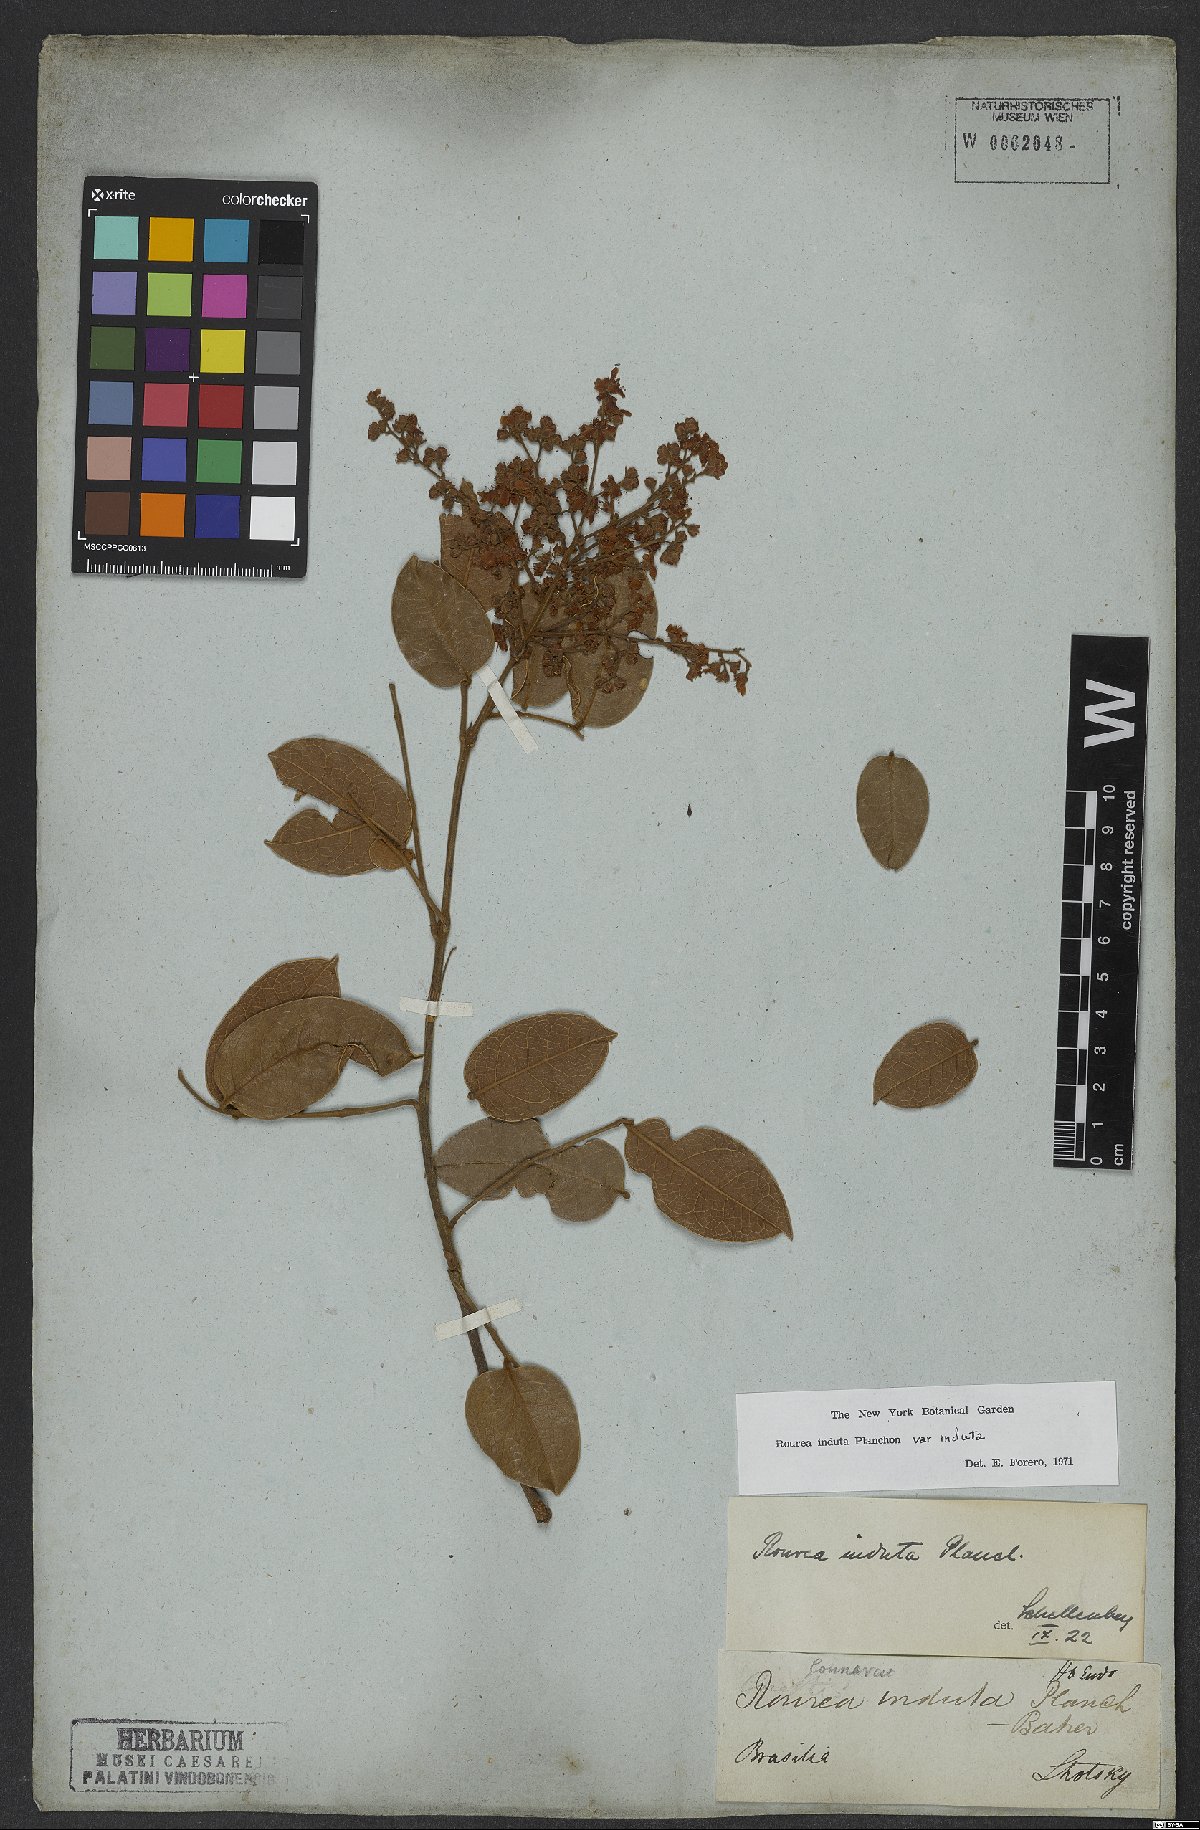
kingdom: Plantae
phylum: Tracheophyta
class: Magnoliopsida
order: Oxalidales
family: Connaraceae
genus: Rourea
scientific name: Rourea induta
